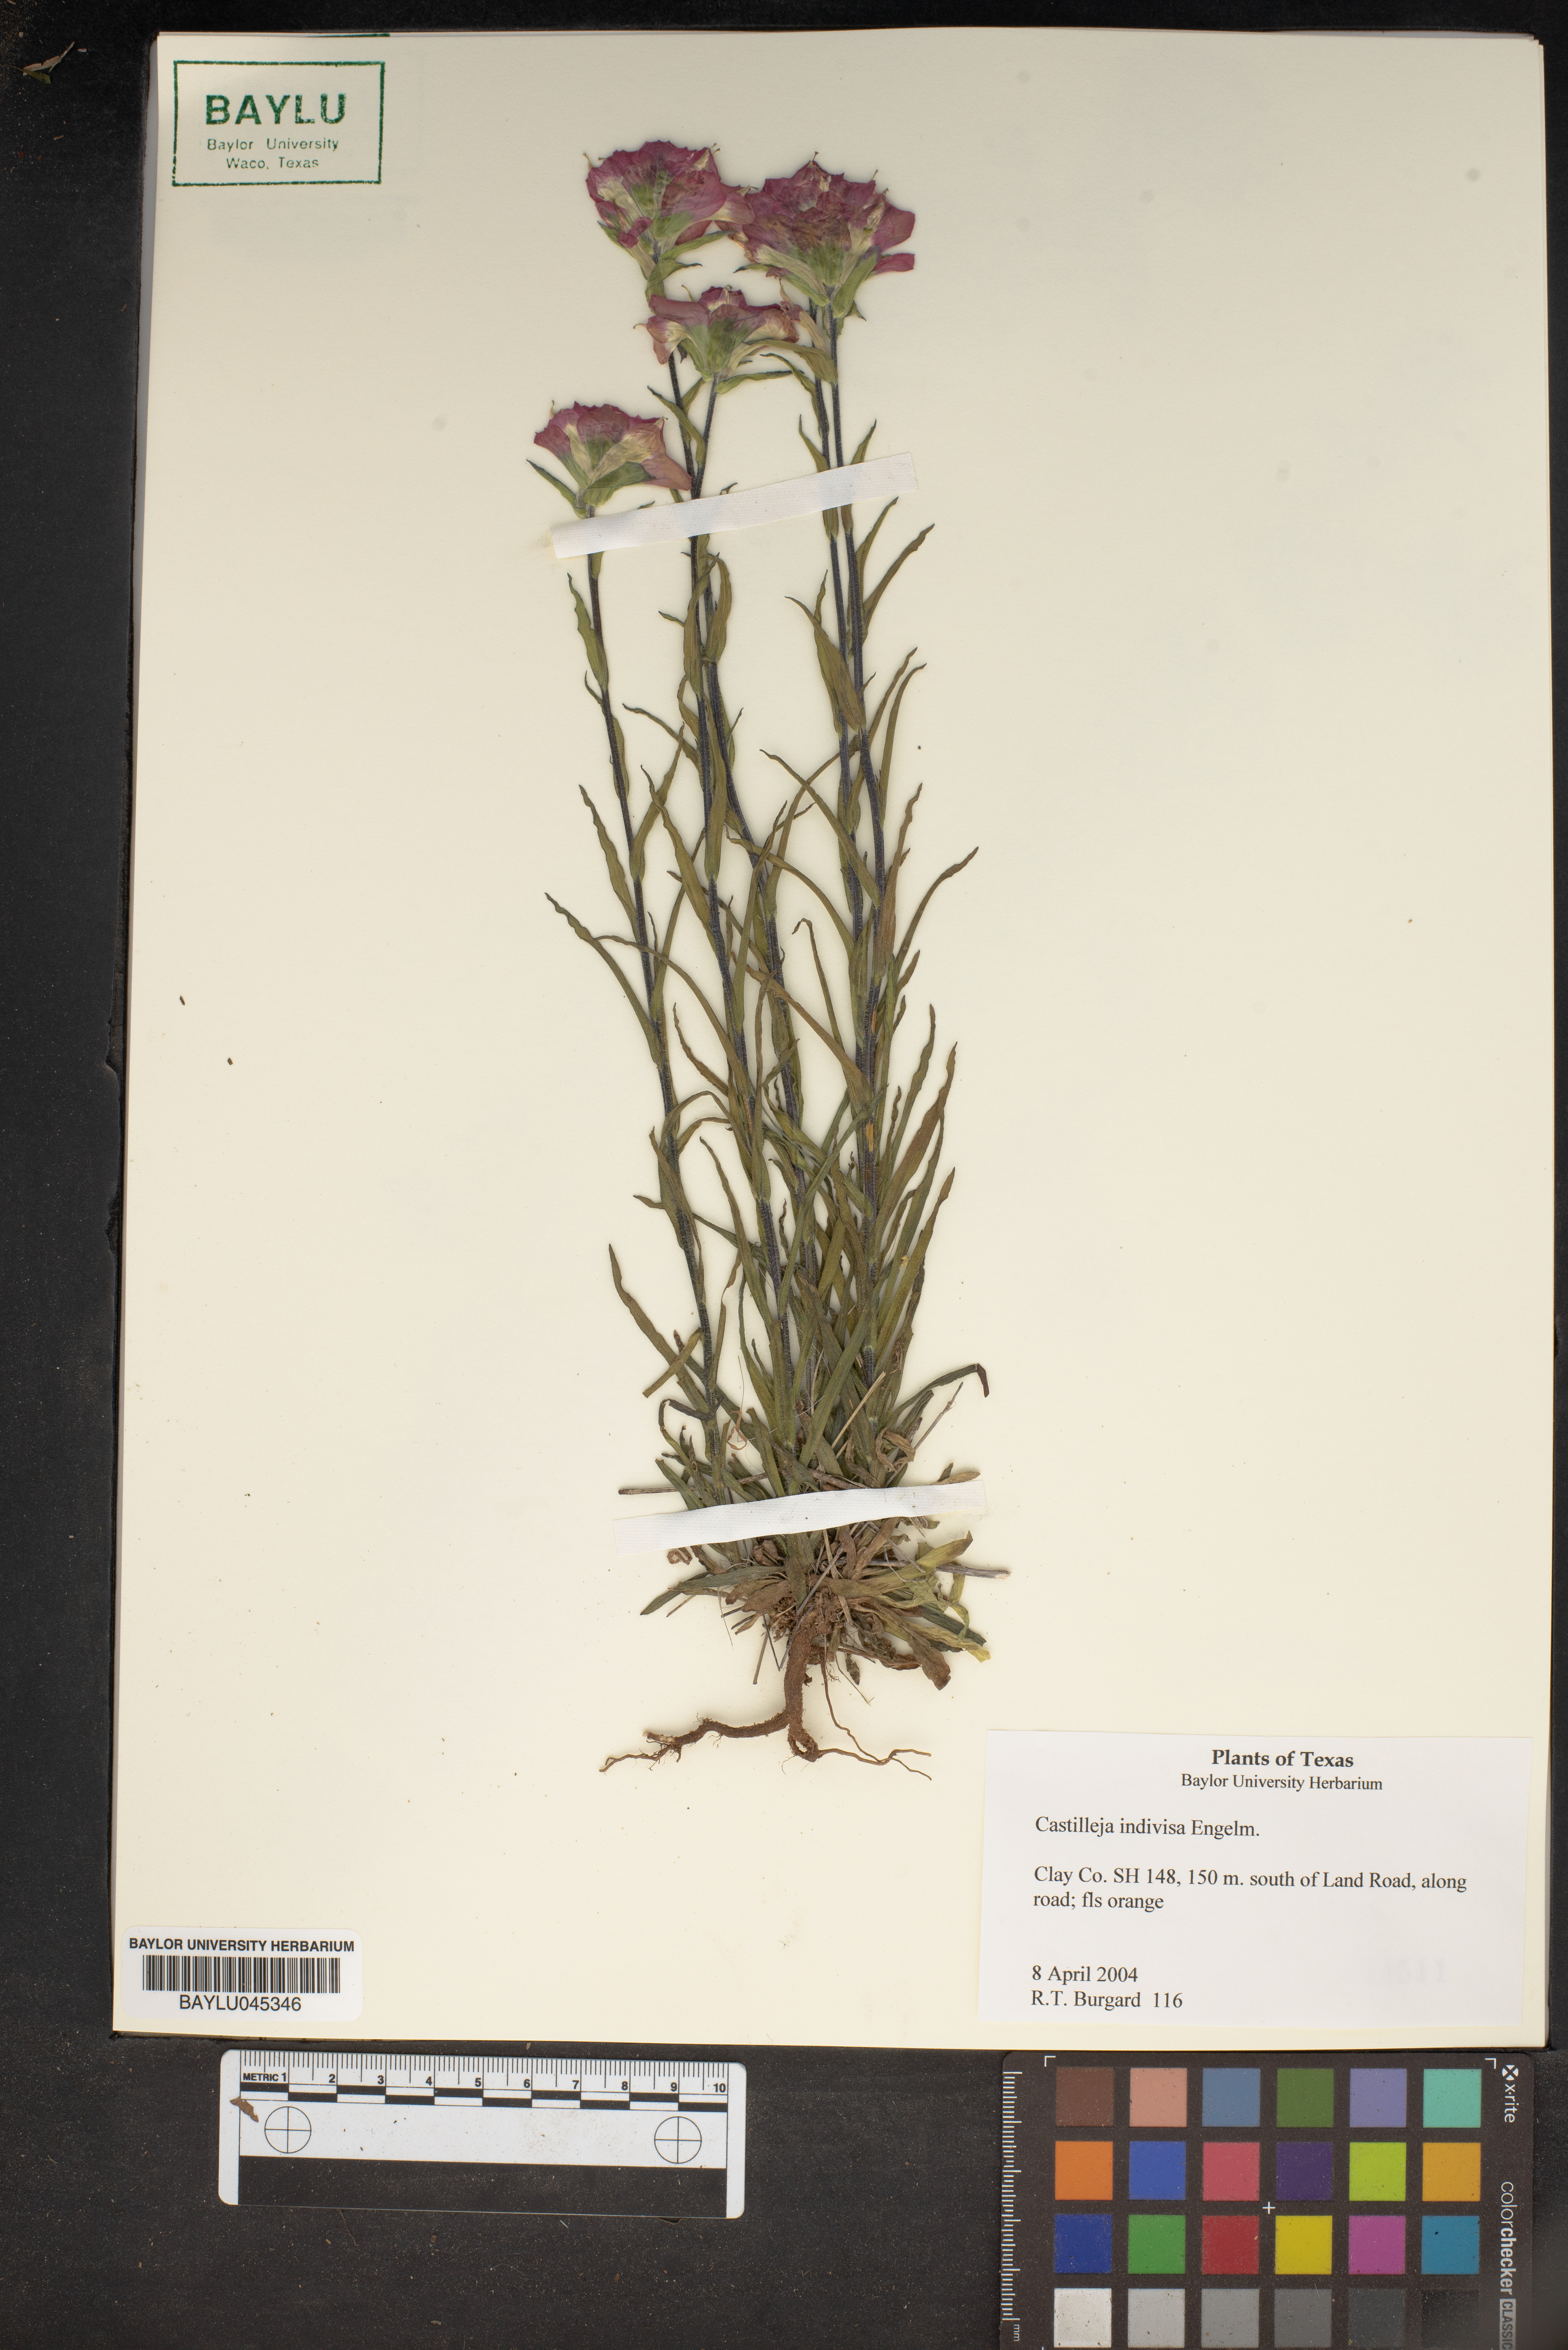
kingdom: Plantae
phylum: Tracheophyta
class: Magnoliopsida
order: Lamiales
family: Orobanchaceae
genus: Castilleja
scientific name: Castilleja indivisa
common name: Texas paintbrush
